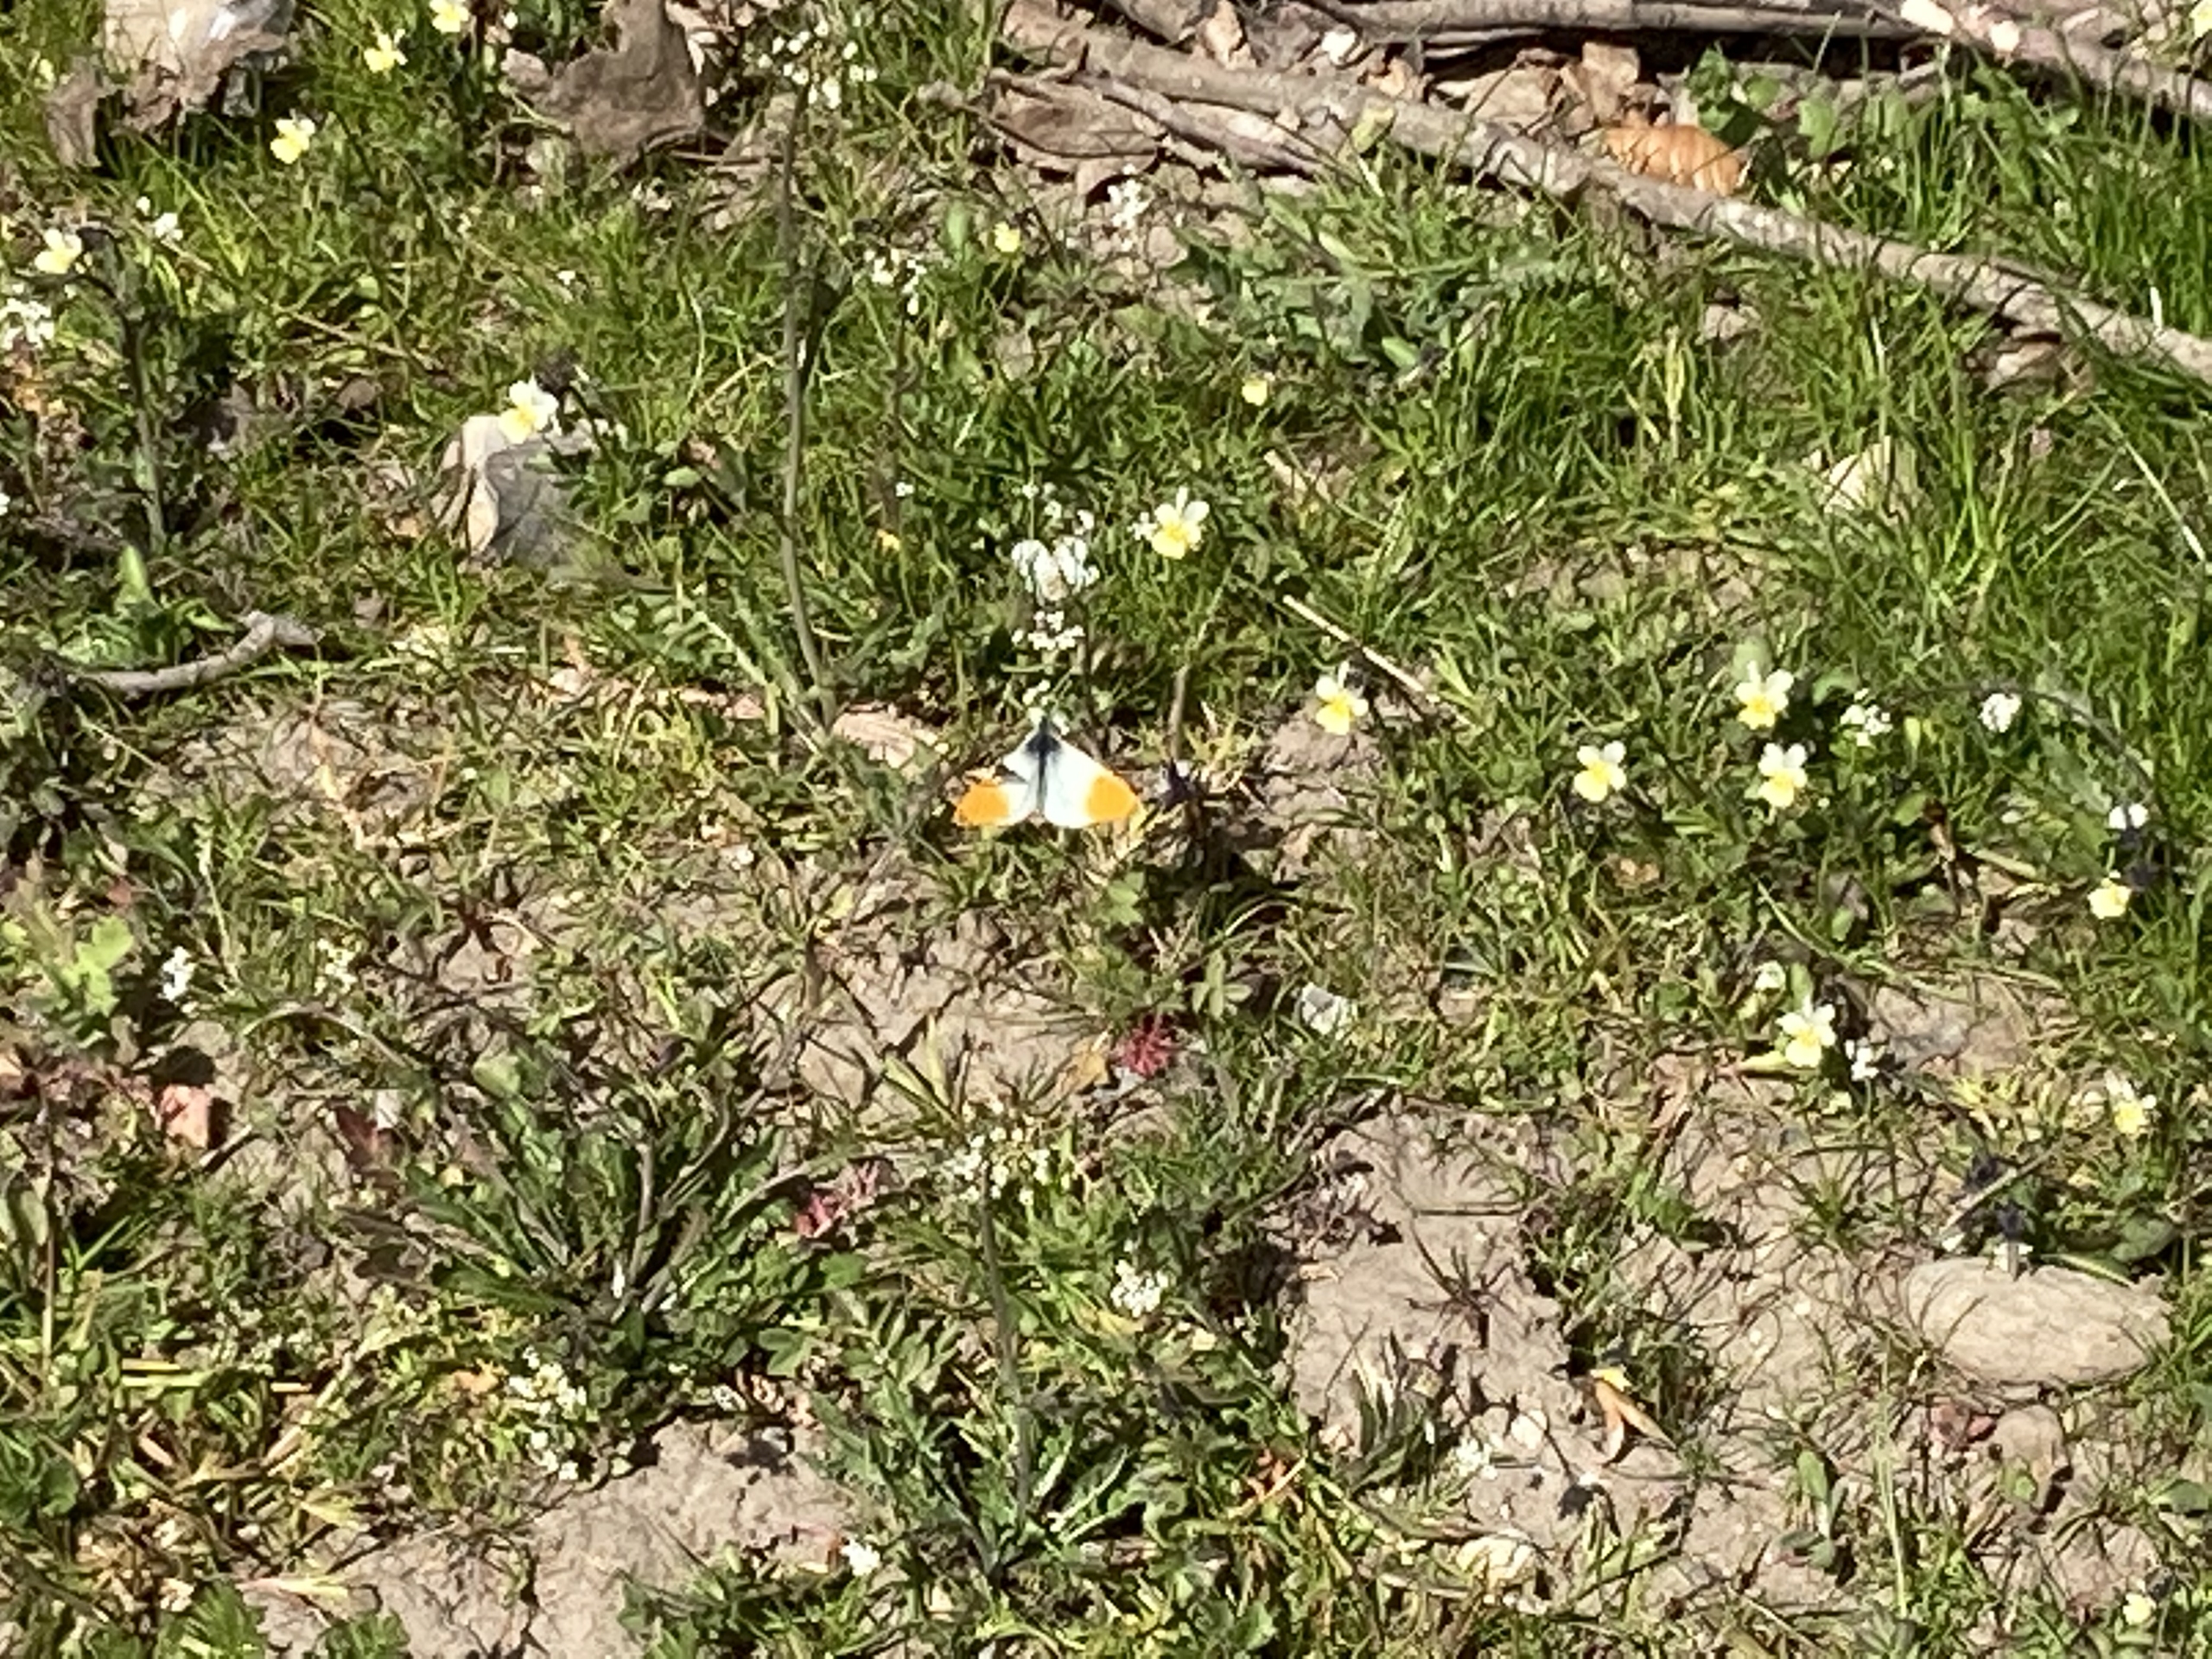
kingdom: Animalia
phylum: Arthropoda
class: Insecta
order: Lepidoptera
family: Pieridae
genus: Anthocharis
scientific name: Anthocharis cardamines
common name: Aurora
